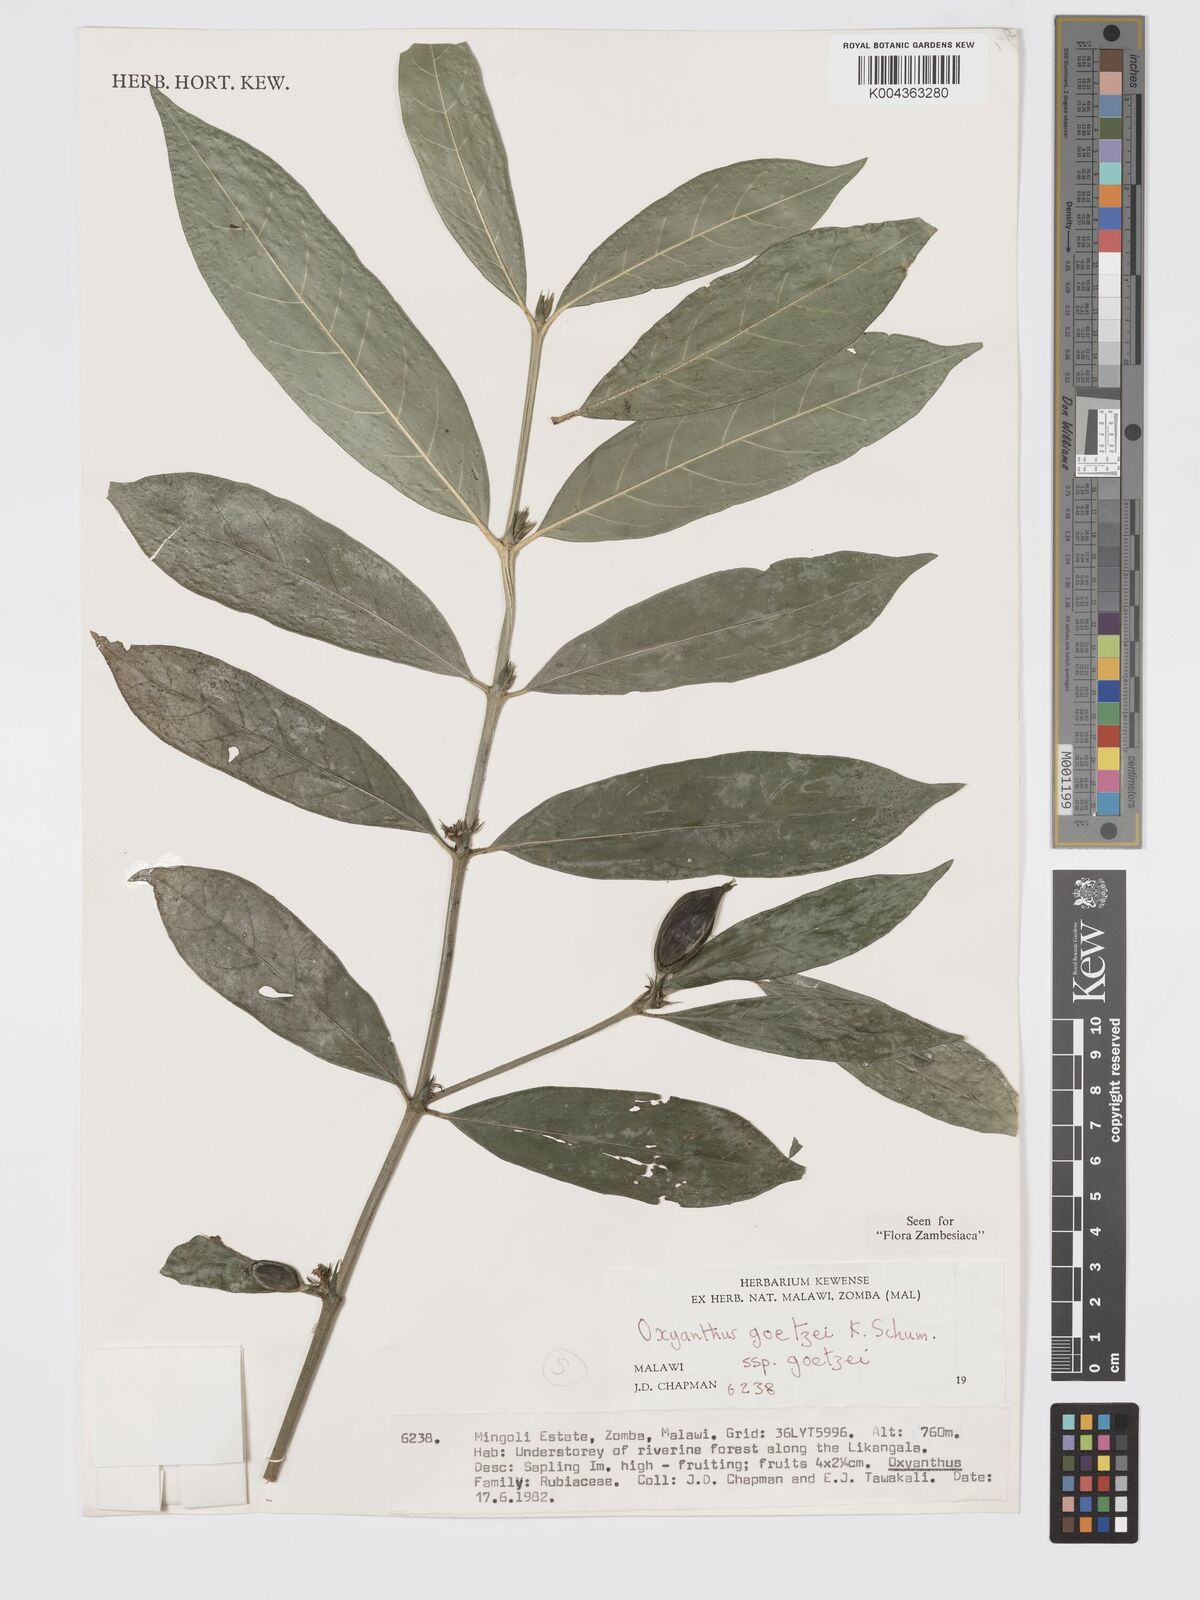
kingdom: Plantae
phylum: Tracheophyta
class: Magnoliopsida
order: Gentianales
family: Rubiaceae
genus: Oxyanthus
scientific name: Oxyanthus goetzei
